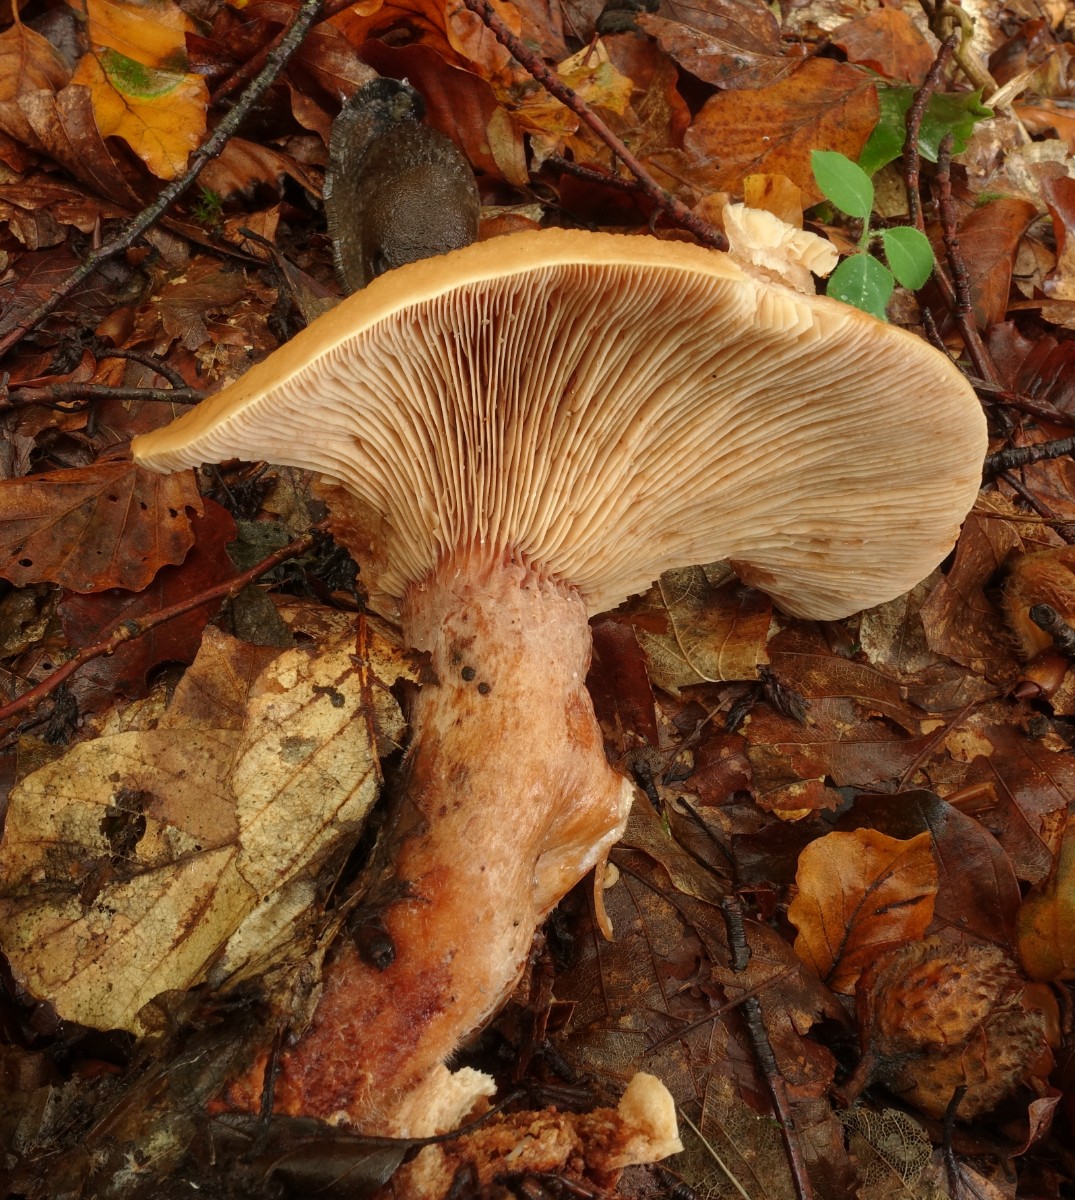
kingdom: Fungi
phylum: Basidiomycota
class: Agaricomycetes
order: Russulales
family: Russulaceae
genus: Lactarius
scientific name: Lactarius rubrocinctus
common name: halsbånd-mælkehat
